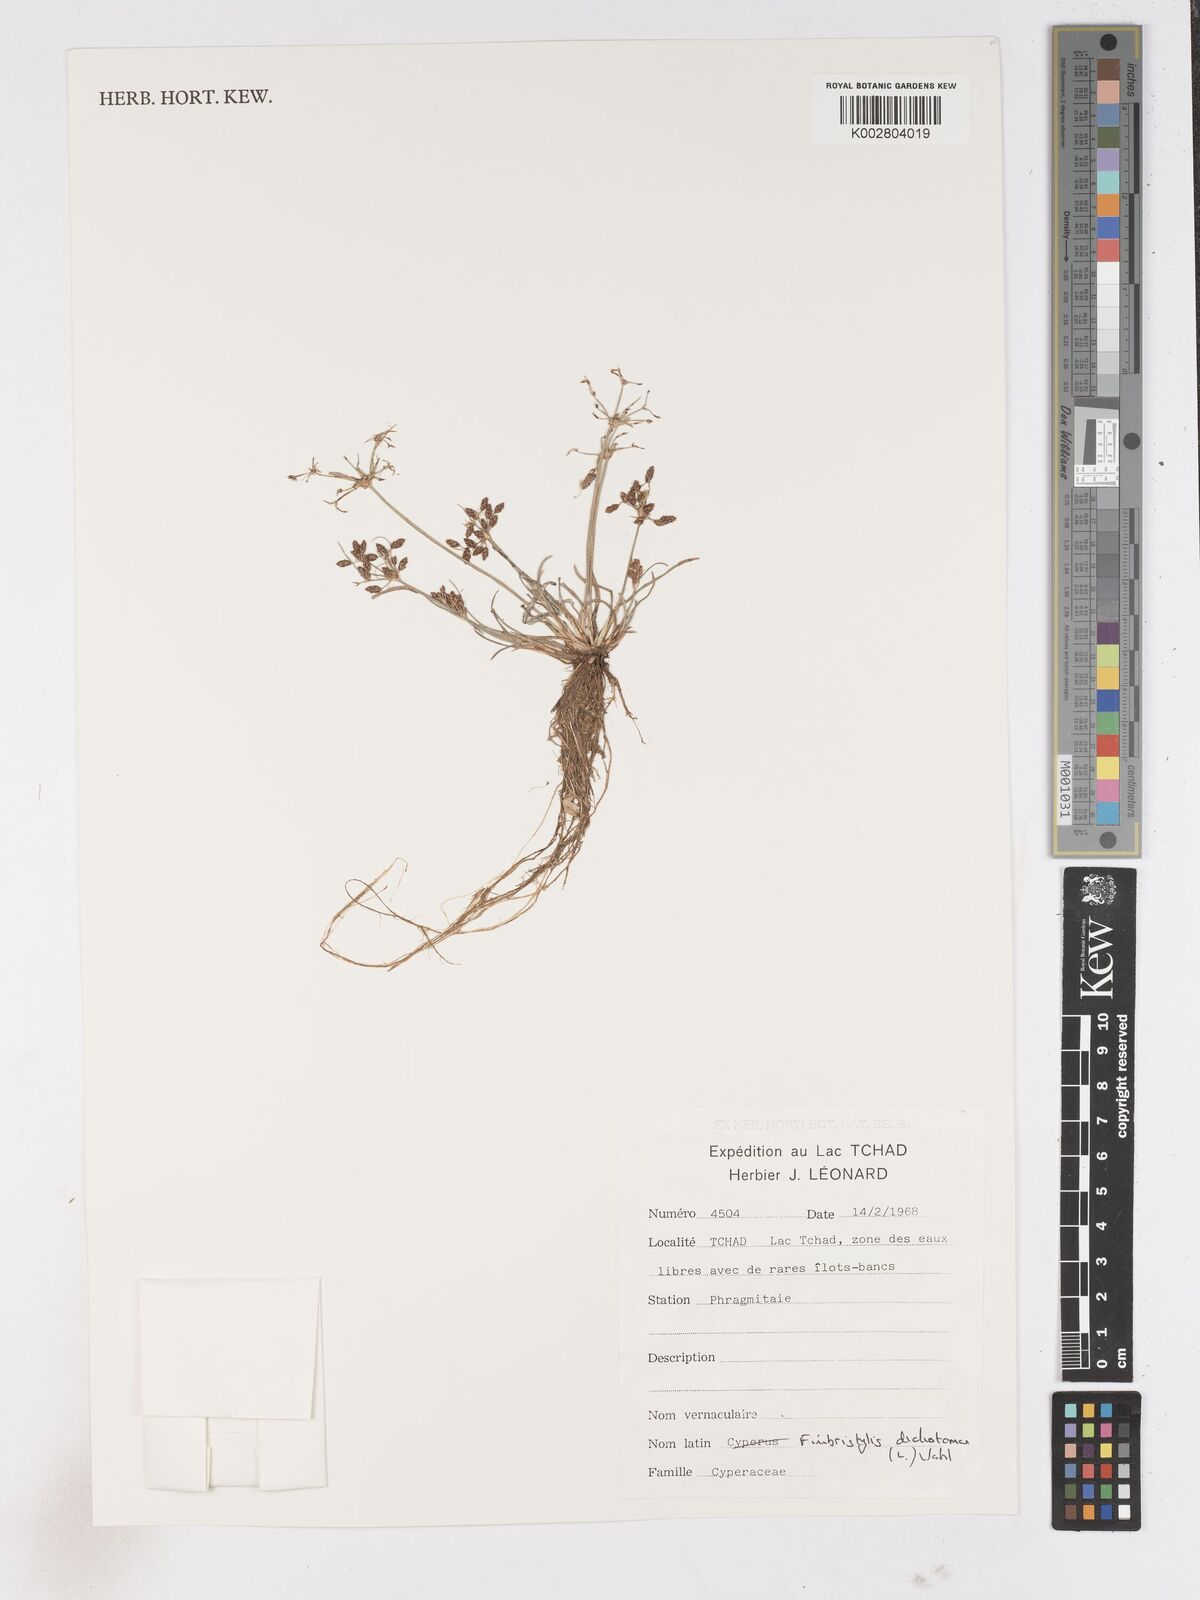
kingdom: Plantae
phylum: Tracheophyta
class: Liliopsida
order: Poales
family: Cyperaceae
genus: Fimbristylis
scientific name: Fimbristylis dichotoma
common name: Forked fimbry
